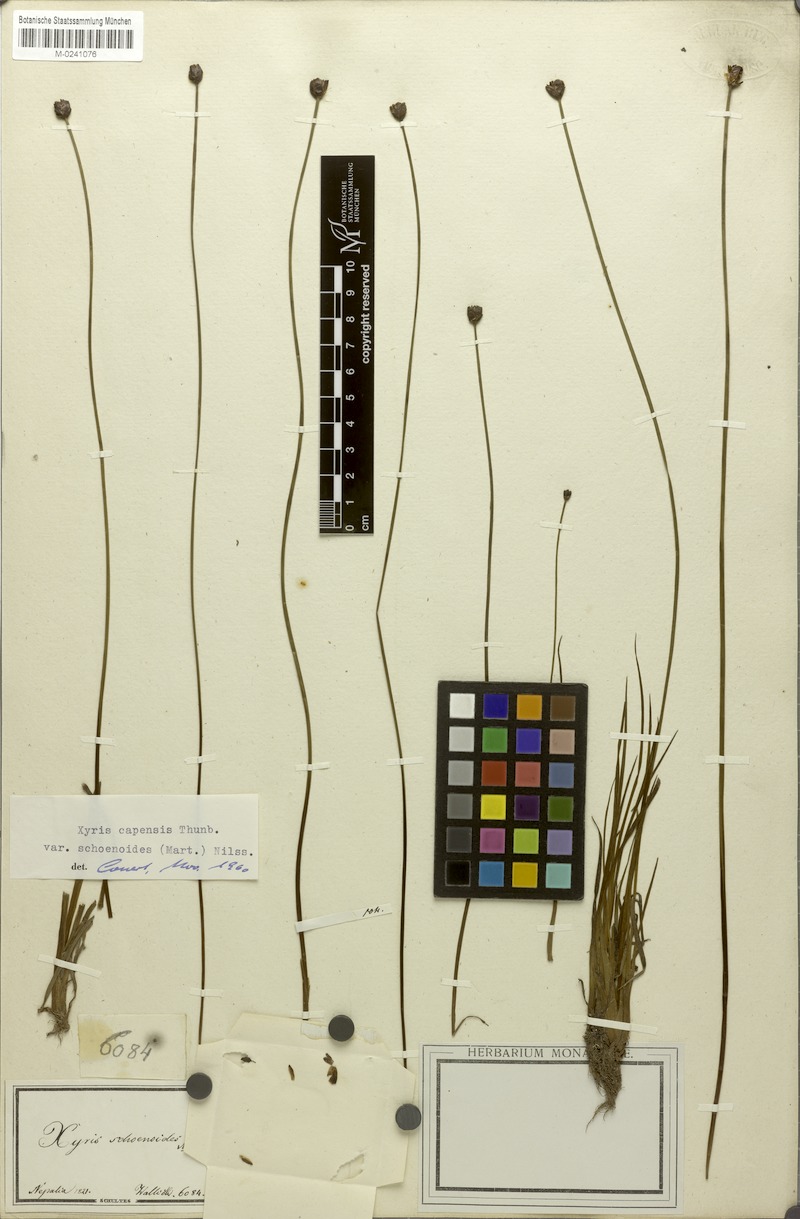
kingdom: Plantae
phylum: Tracheophyta
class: Liliopsida
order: Poales
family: Xyridaceae
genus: Xyris
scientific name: Xyris capensis
